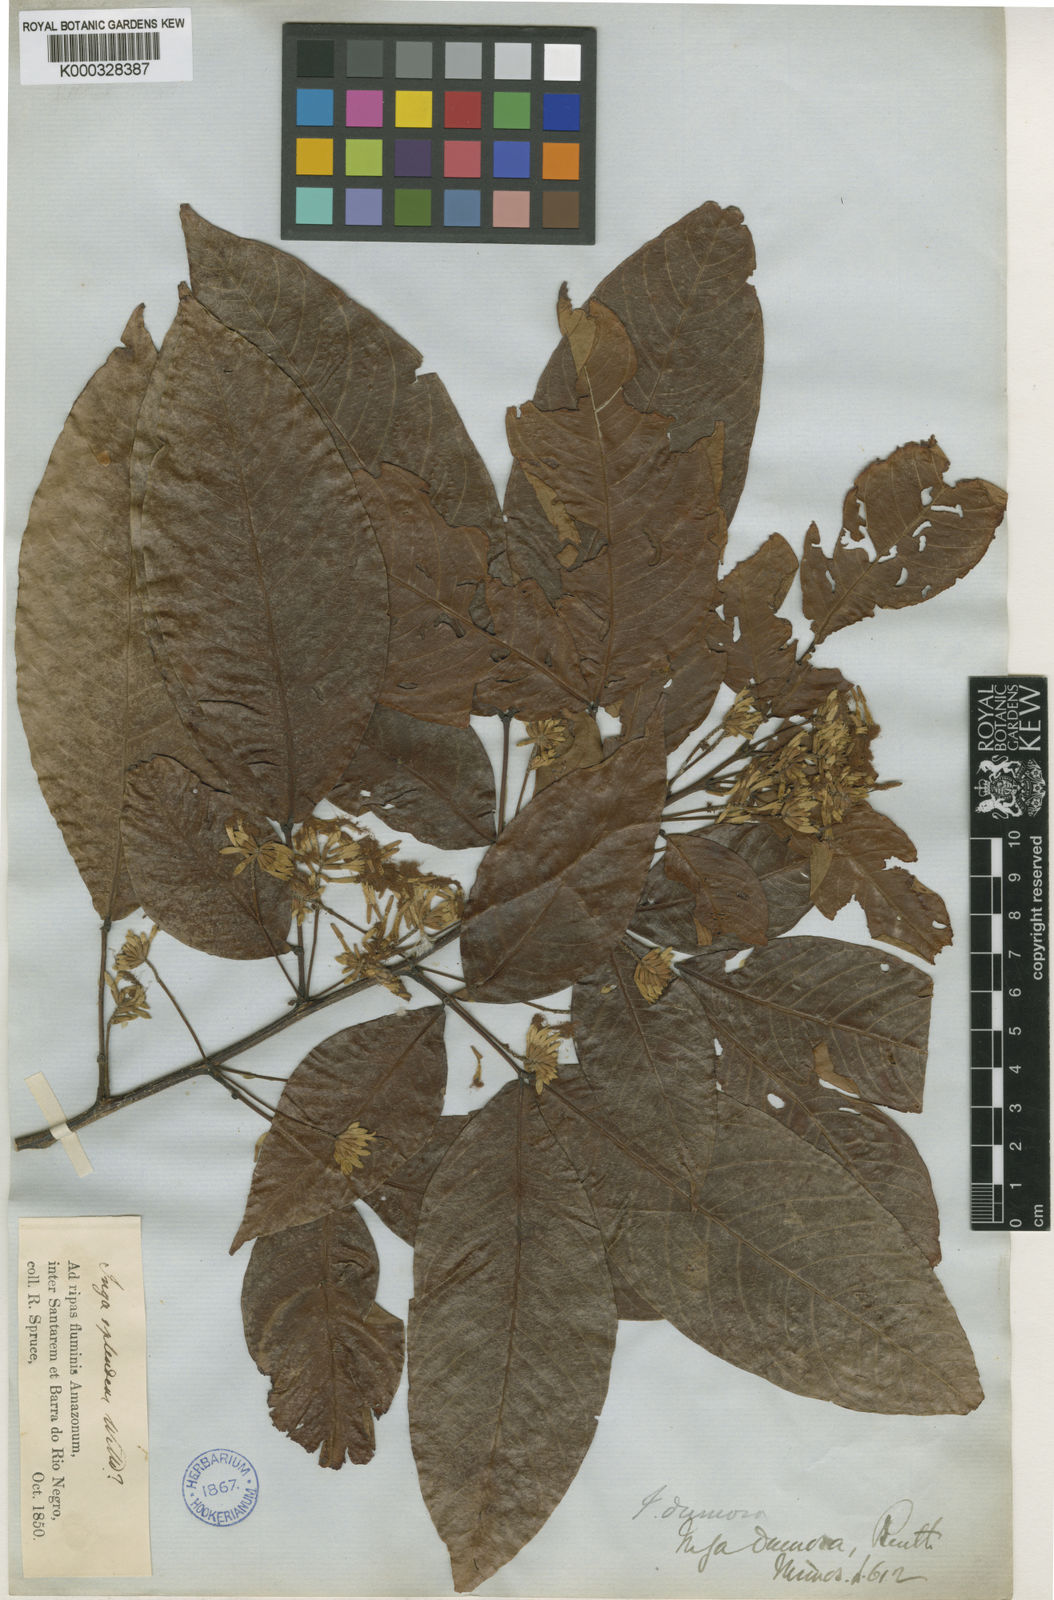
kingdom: Plantae
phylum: Tracheophyta
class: Magnoliopsida
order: Fabales
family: Fabaceae
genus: Inga
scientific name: Inga stenoptera
